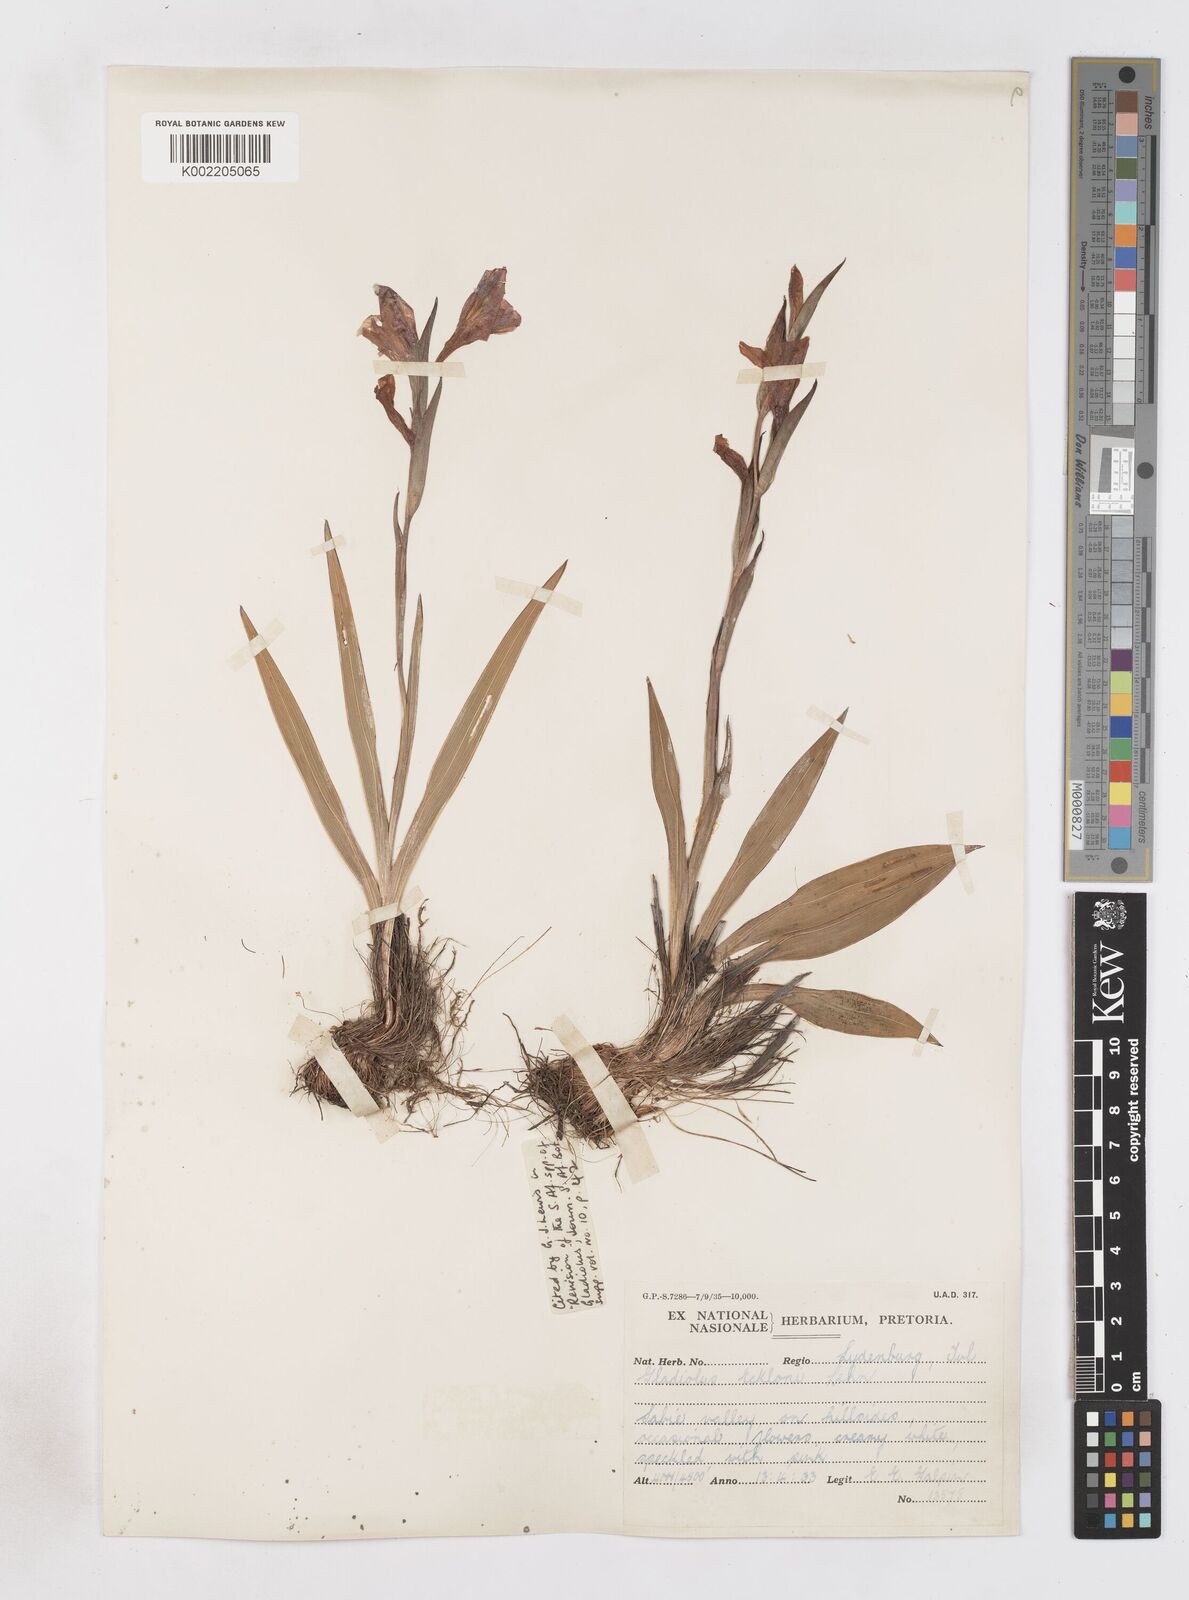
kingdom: Plantae
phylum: Tracheophyta
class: Liliopsida
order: Asparagales
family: Iridaceae
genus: Gladiolus
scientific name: Gladiolus ecklonii
